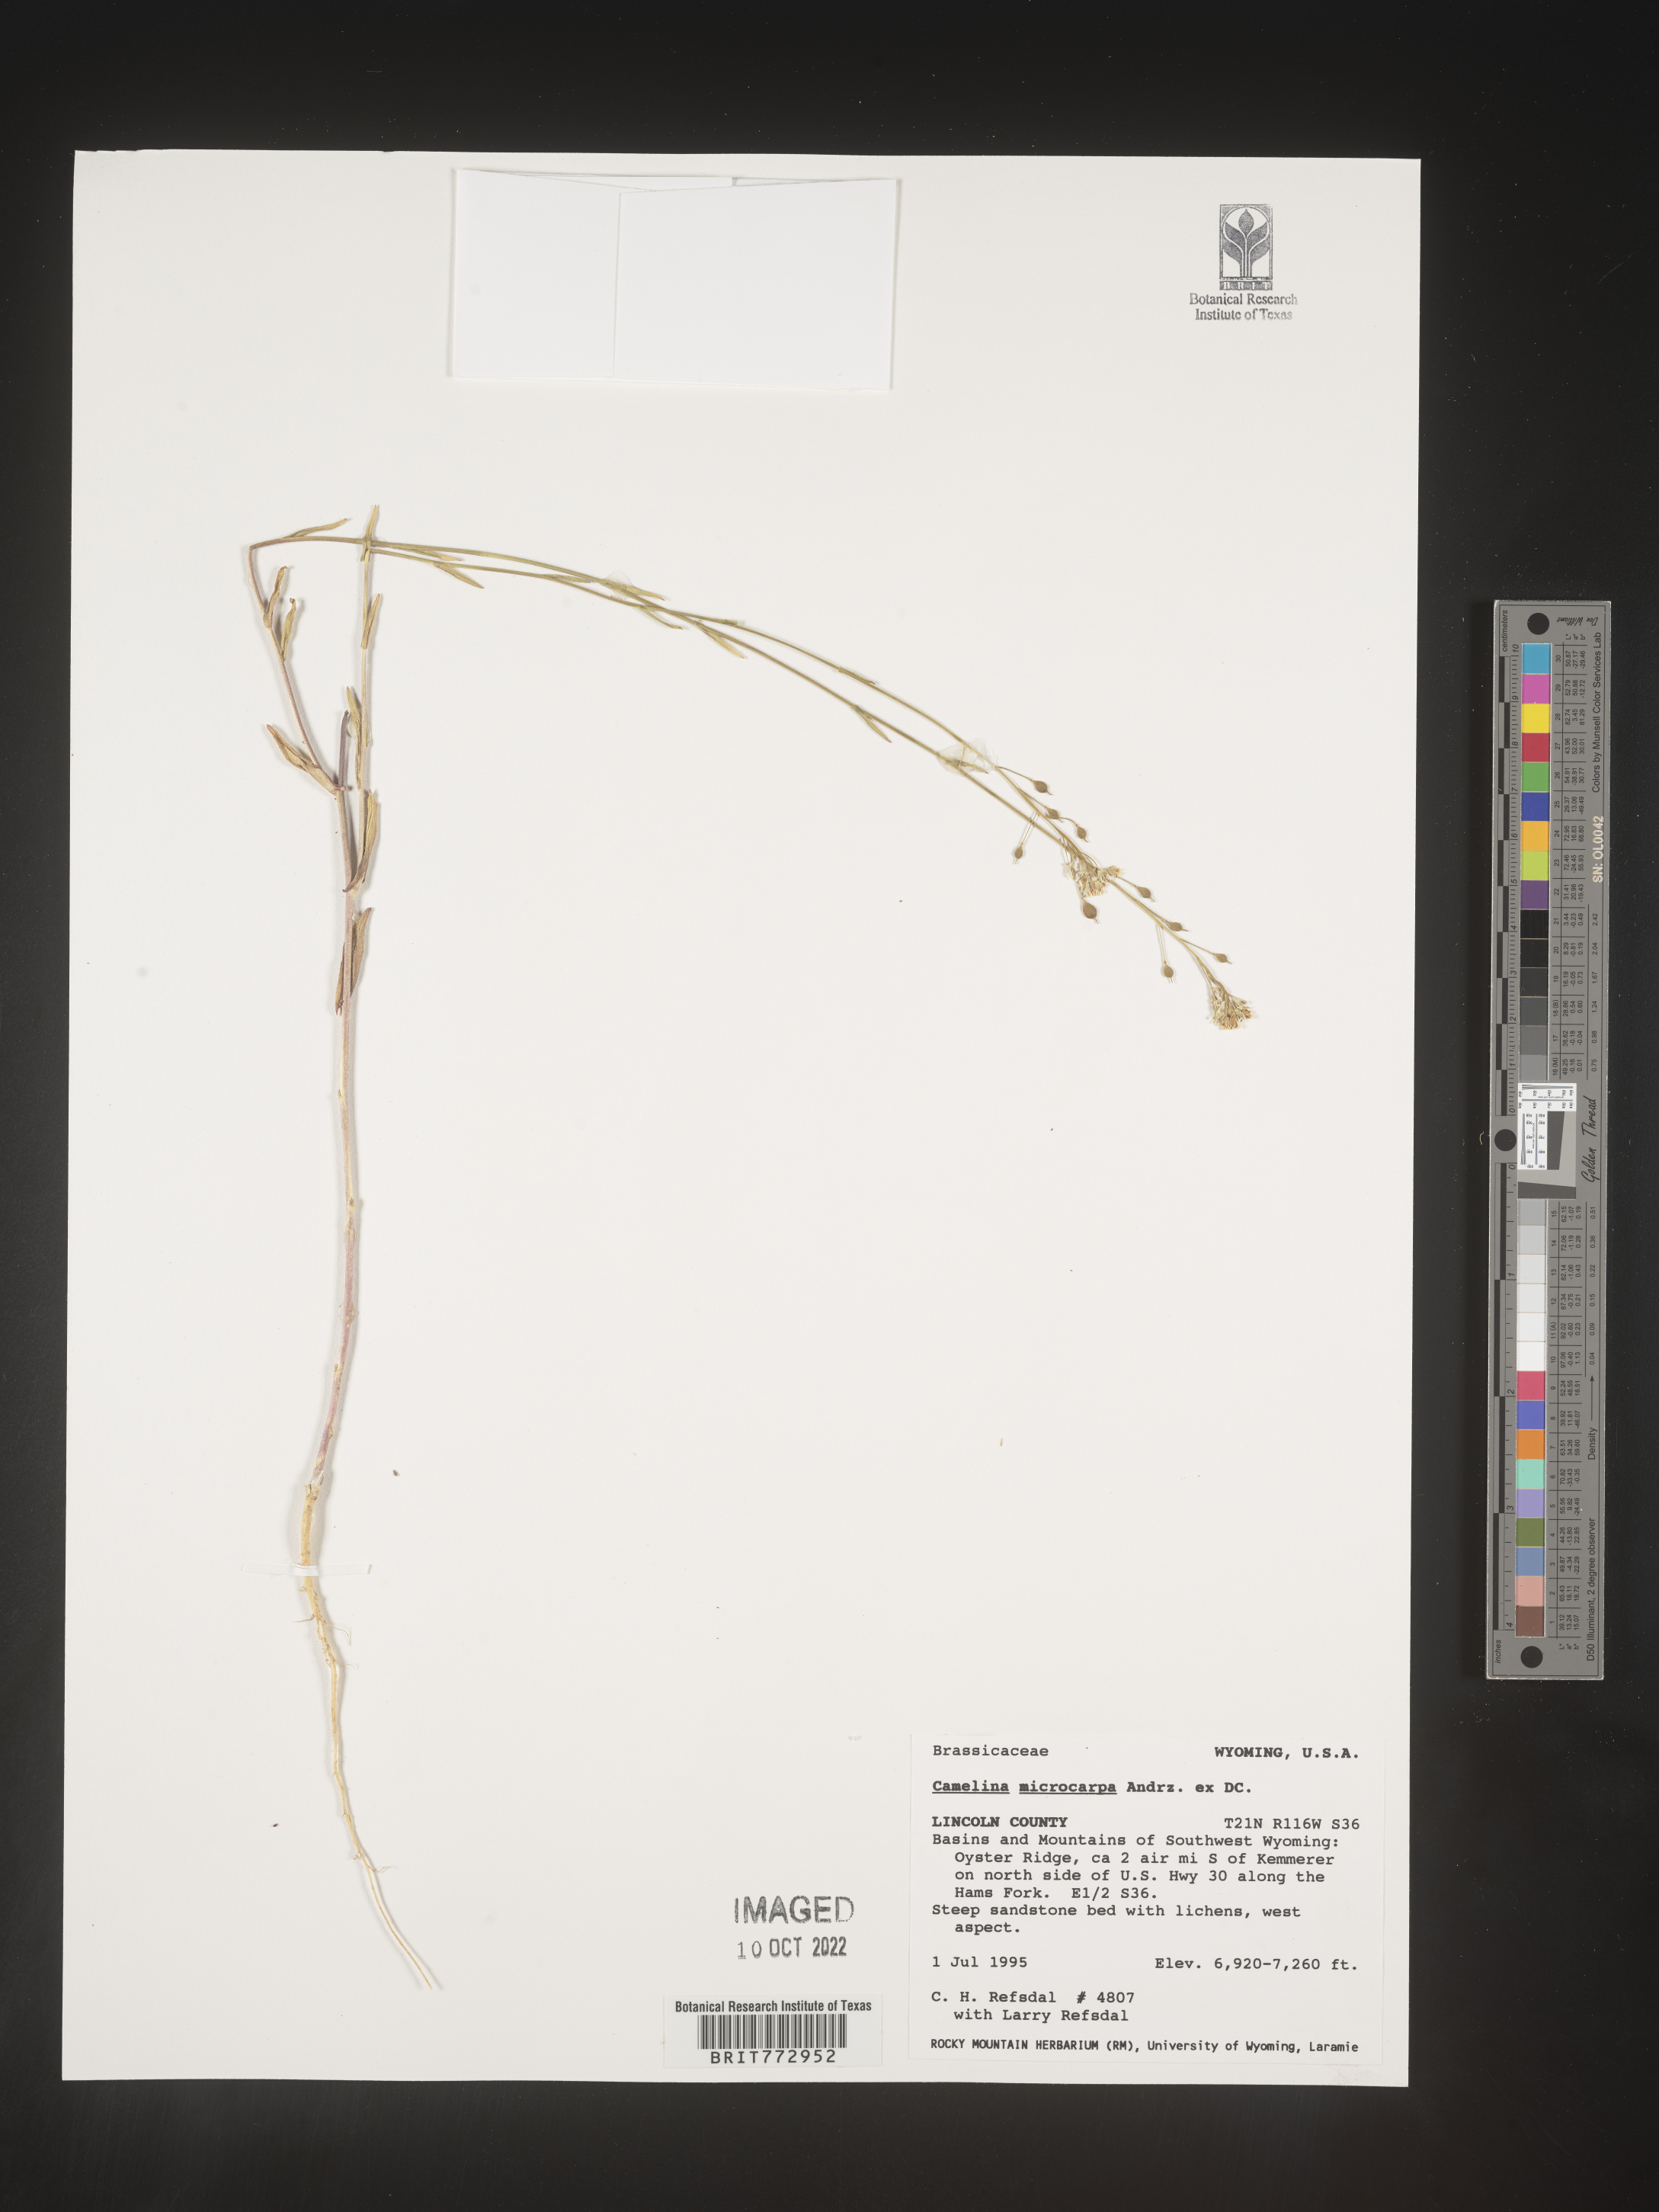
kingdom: Plantae
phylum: Tracheophyta
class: Magnoliopsida
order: Brassicales
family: Brassicaceae
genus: Camelina
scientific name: Camelina microcarpa
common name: Lesser gold-of-pleasure
